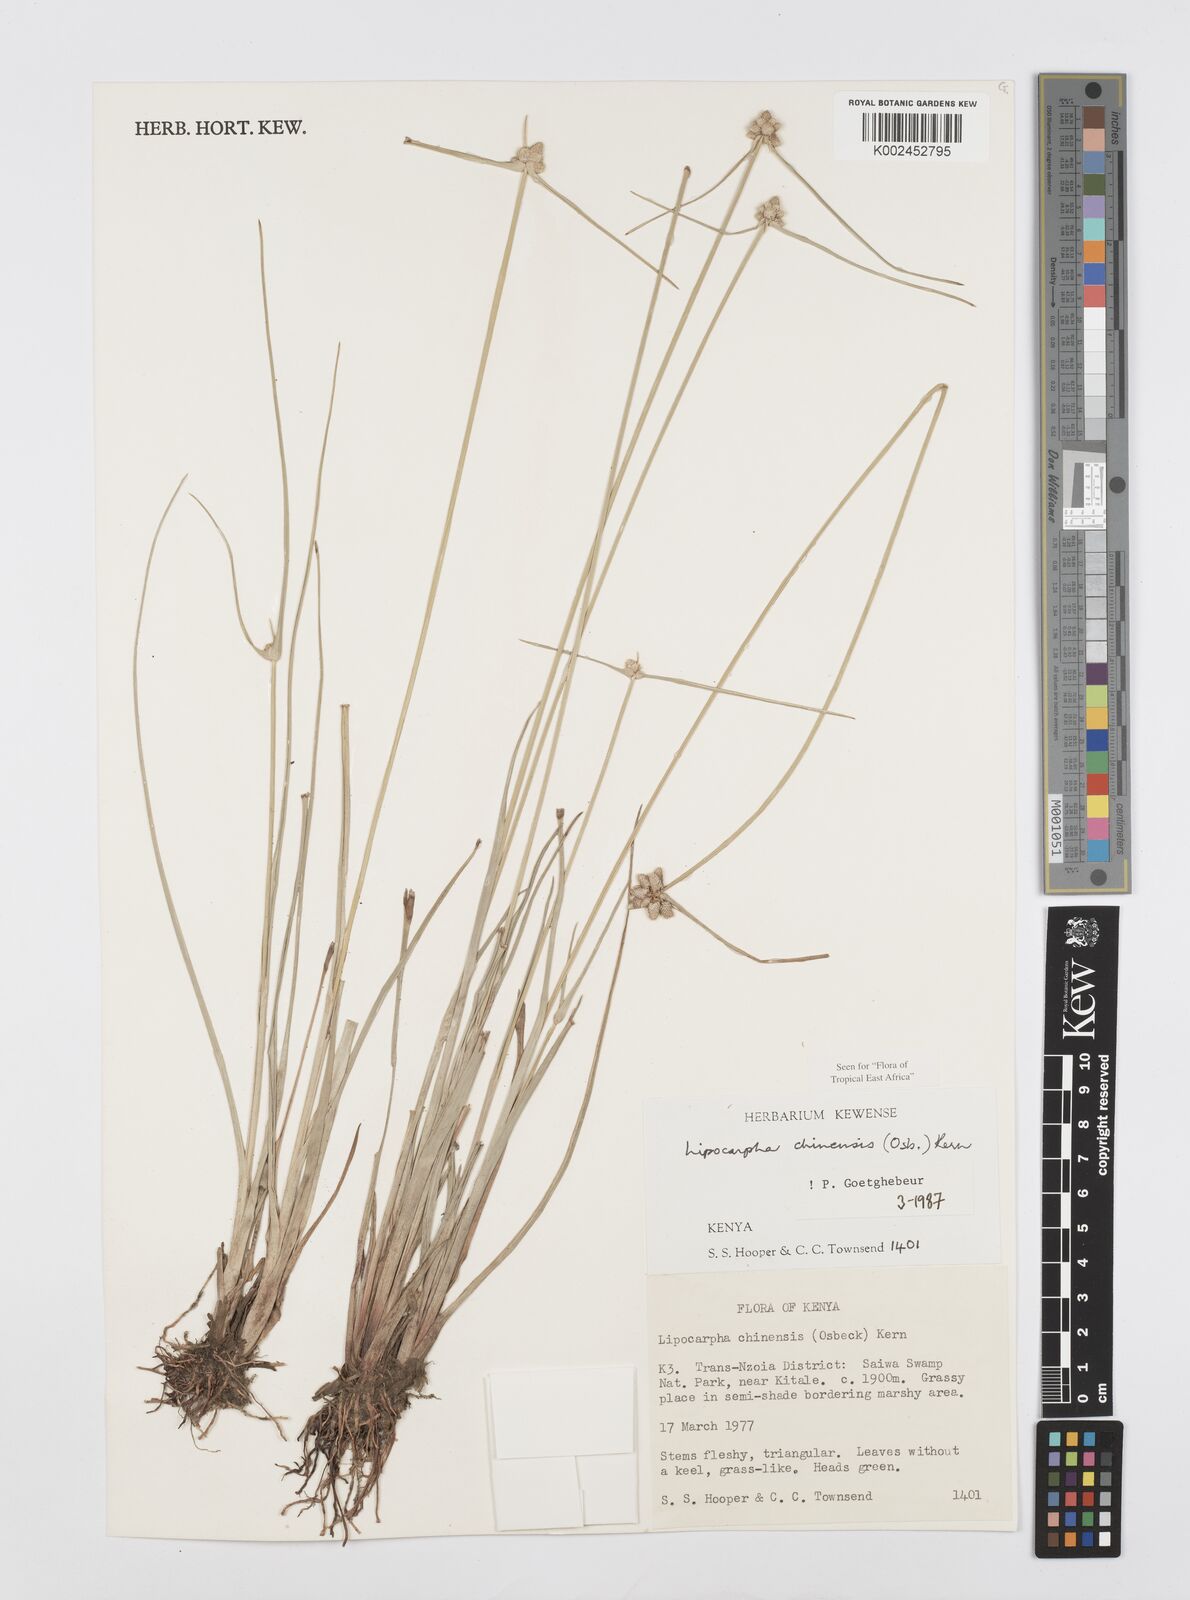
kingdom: Plantae
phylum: Tracheophyta
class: Liliopsida
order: Poales
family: Cyperaceae
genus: Cyperus
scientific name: Cyperus albescens
